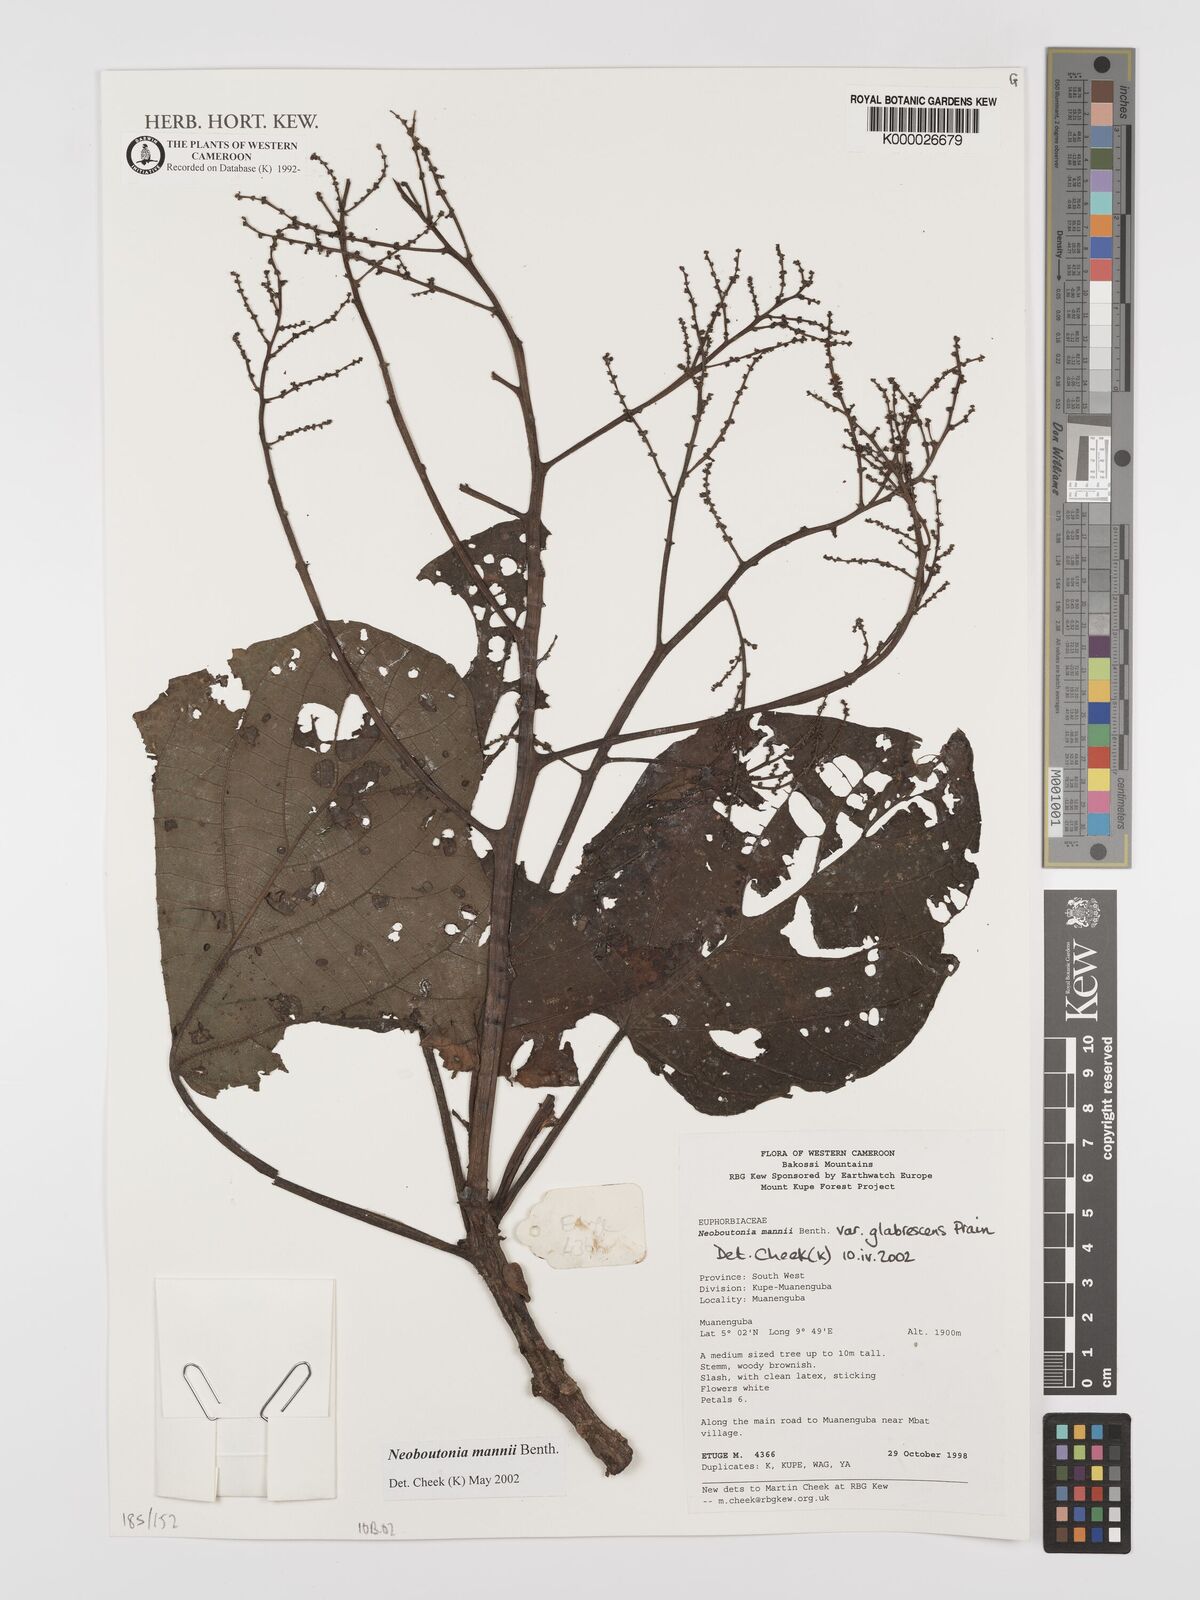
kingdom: Plantae
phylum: Tracheophyta
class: Magnoliopsida
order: Malpighiales
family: Euphorbiaceae
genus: Neoboutonia
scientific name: Neoboutonia mannii
